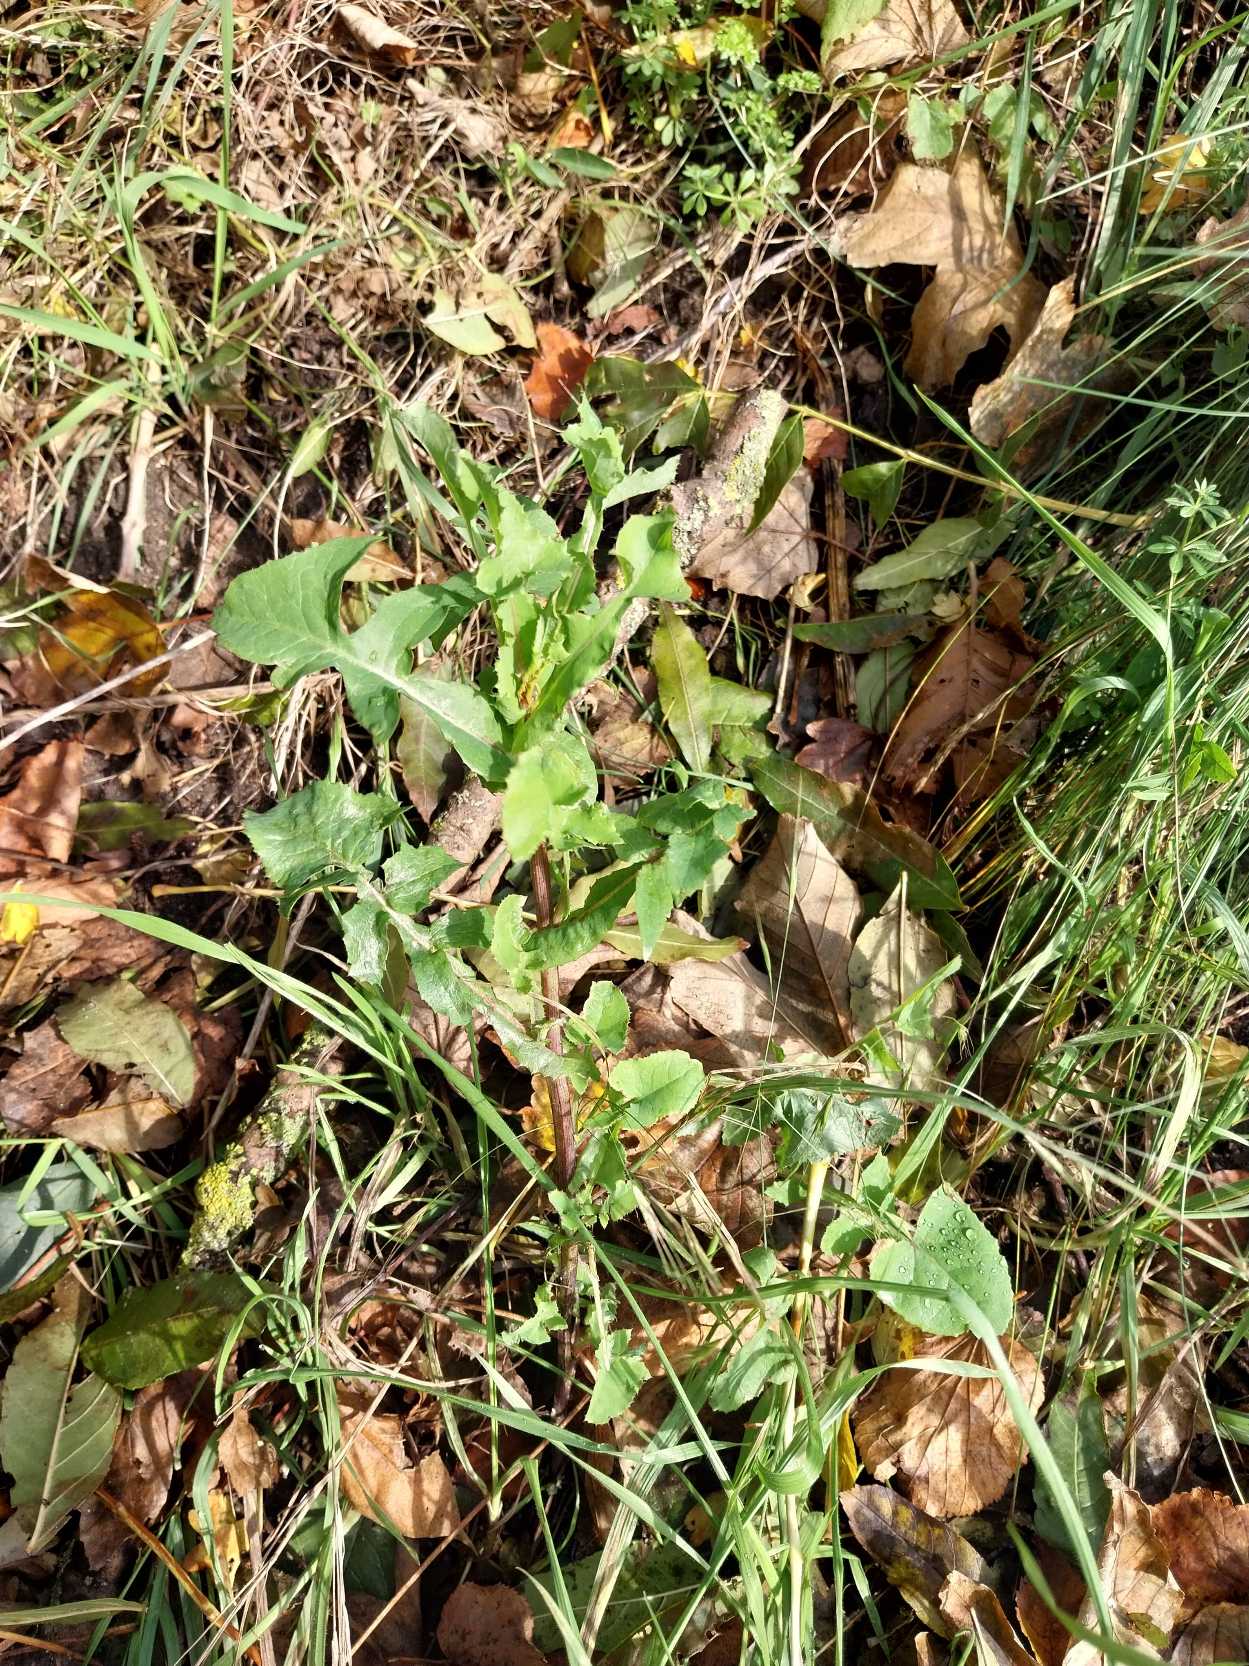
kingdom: Plantae
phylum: Tracheophyta
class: Magnoliopsida
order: Asterales
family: Asteraceae
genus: Sonchus
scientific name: Sonchus oleraceus
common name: Almindelig svinemælk
